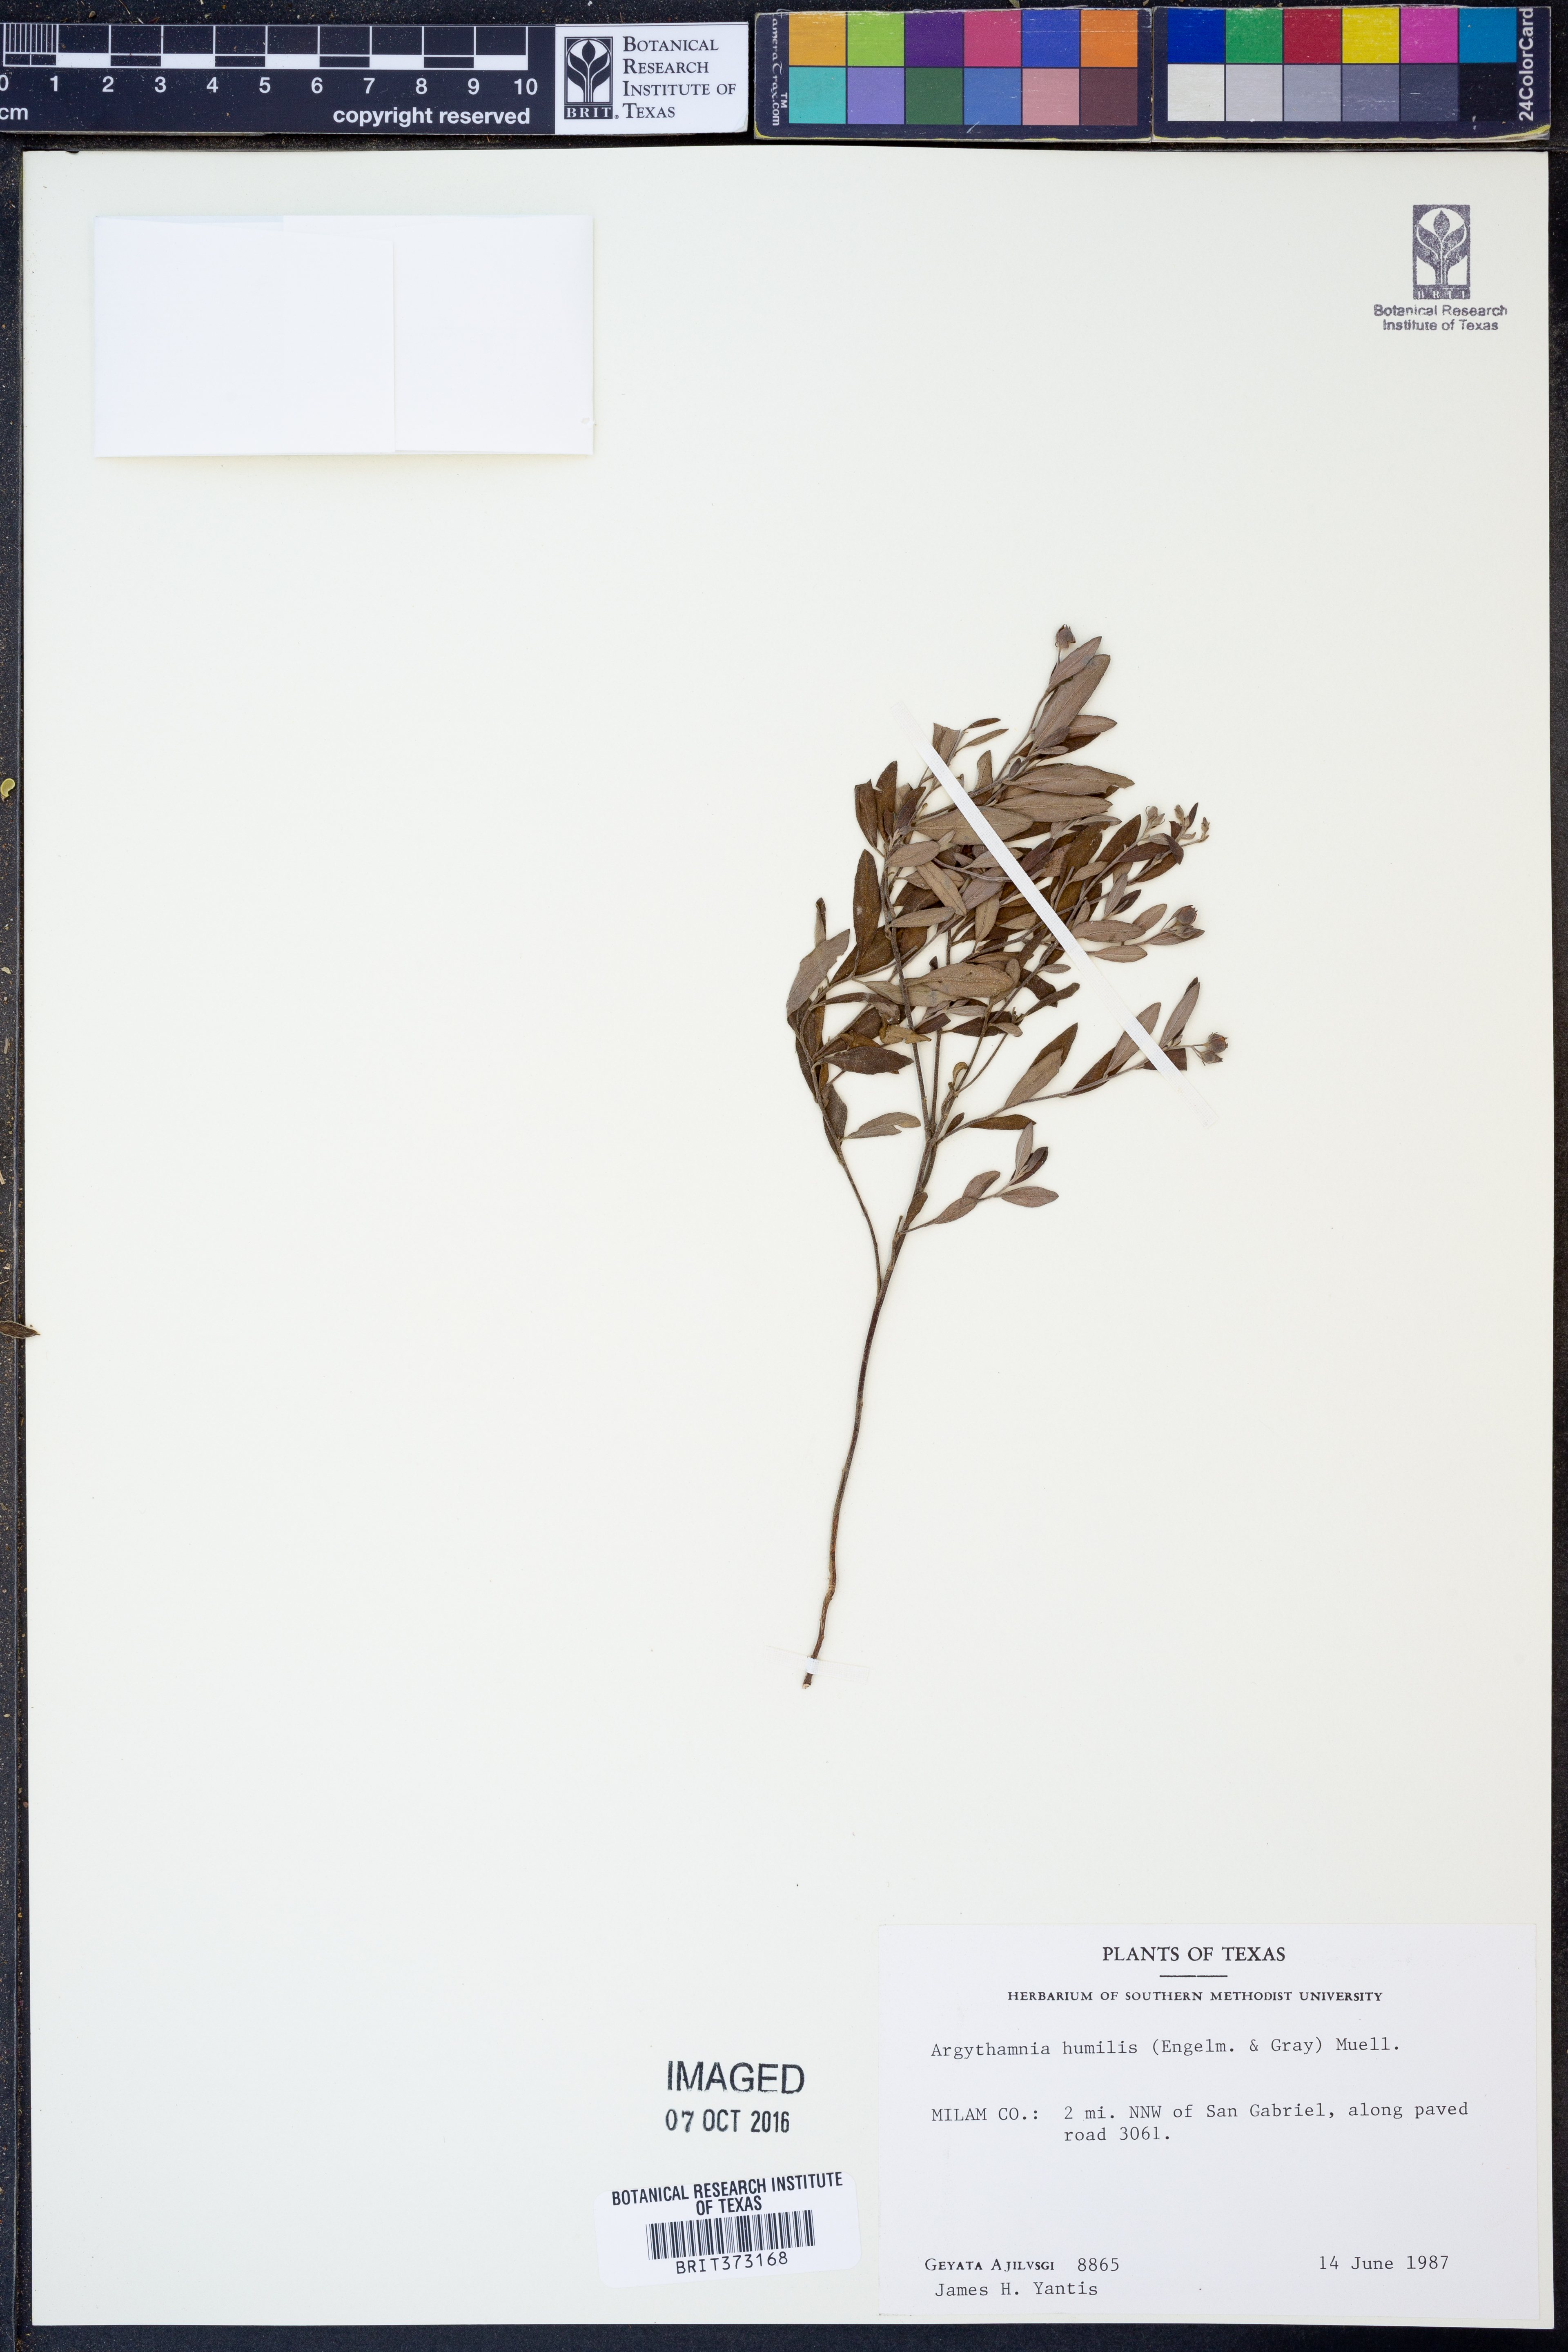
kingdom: Plantae
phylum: Tracheophyta
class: Magnoliopsida
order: Malpighiales
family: Euphorbiaceae
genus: Ditaxis
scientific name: Ditaxis humilis
